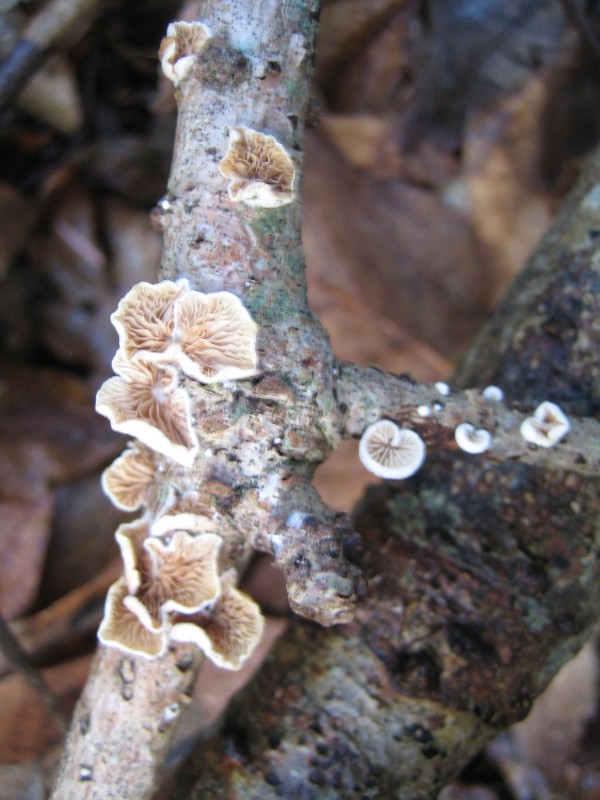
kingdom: Fungi
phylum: Basidiomycota
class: Agaricomycetes
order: Agaricales
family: Crepidotaceae
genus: Crepidotus
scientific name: Crepidotus
